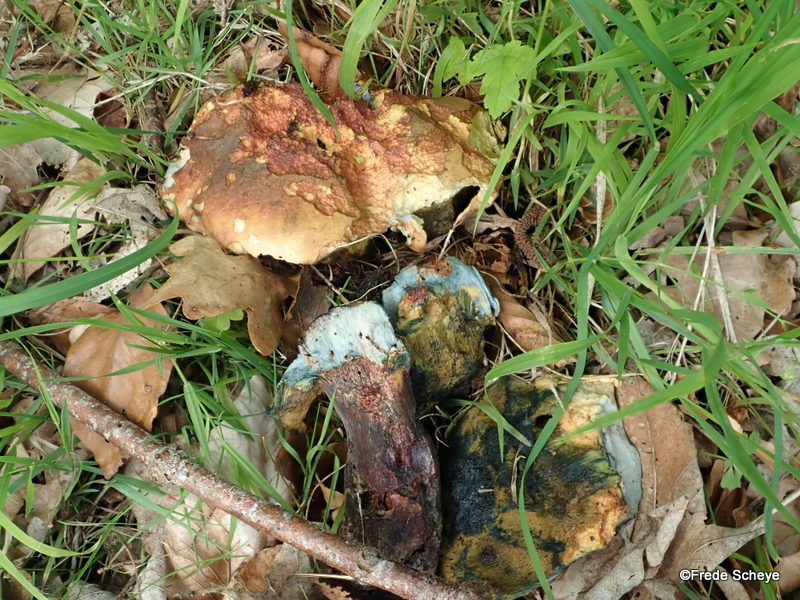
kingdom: Fungi
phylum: Basidiomycota
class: Agaricomycetes
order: Boletales
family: Boletaceae
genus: Suillellus
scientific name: Suillellus luridus
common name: netstokket indigorørhat
